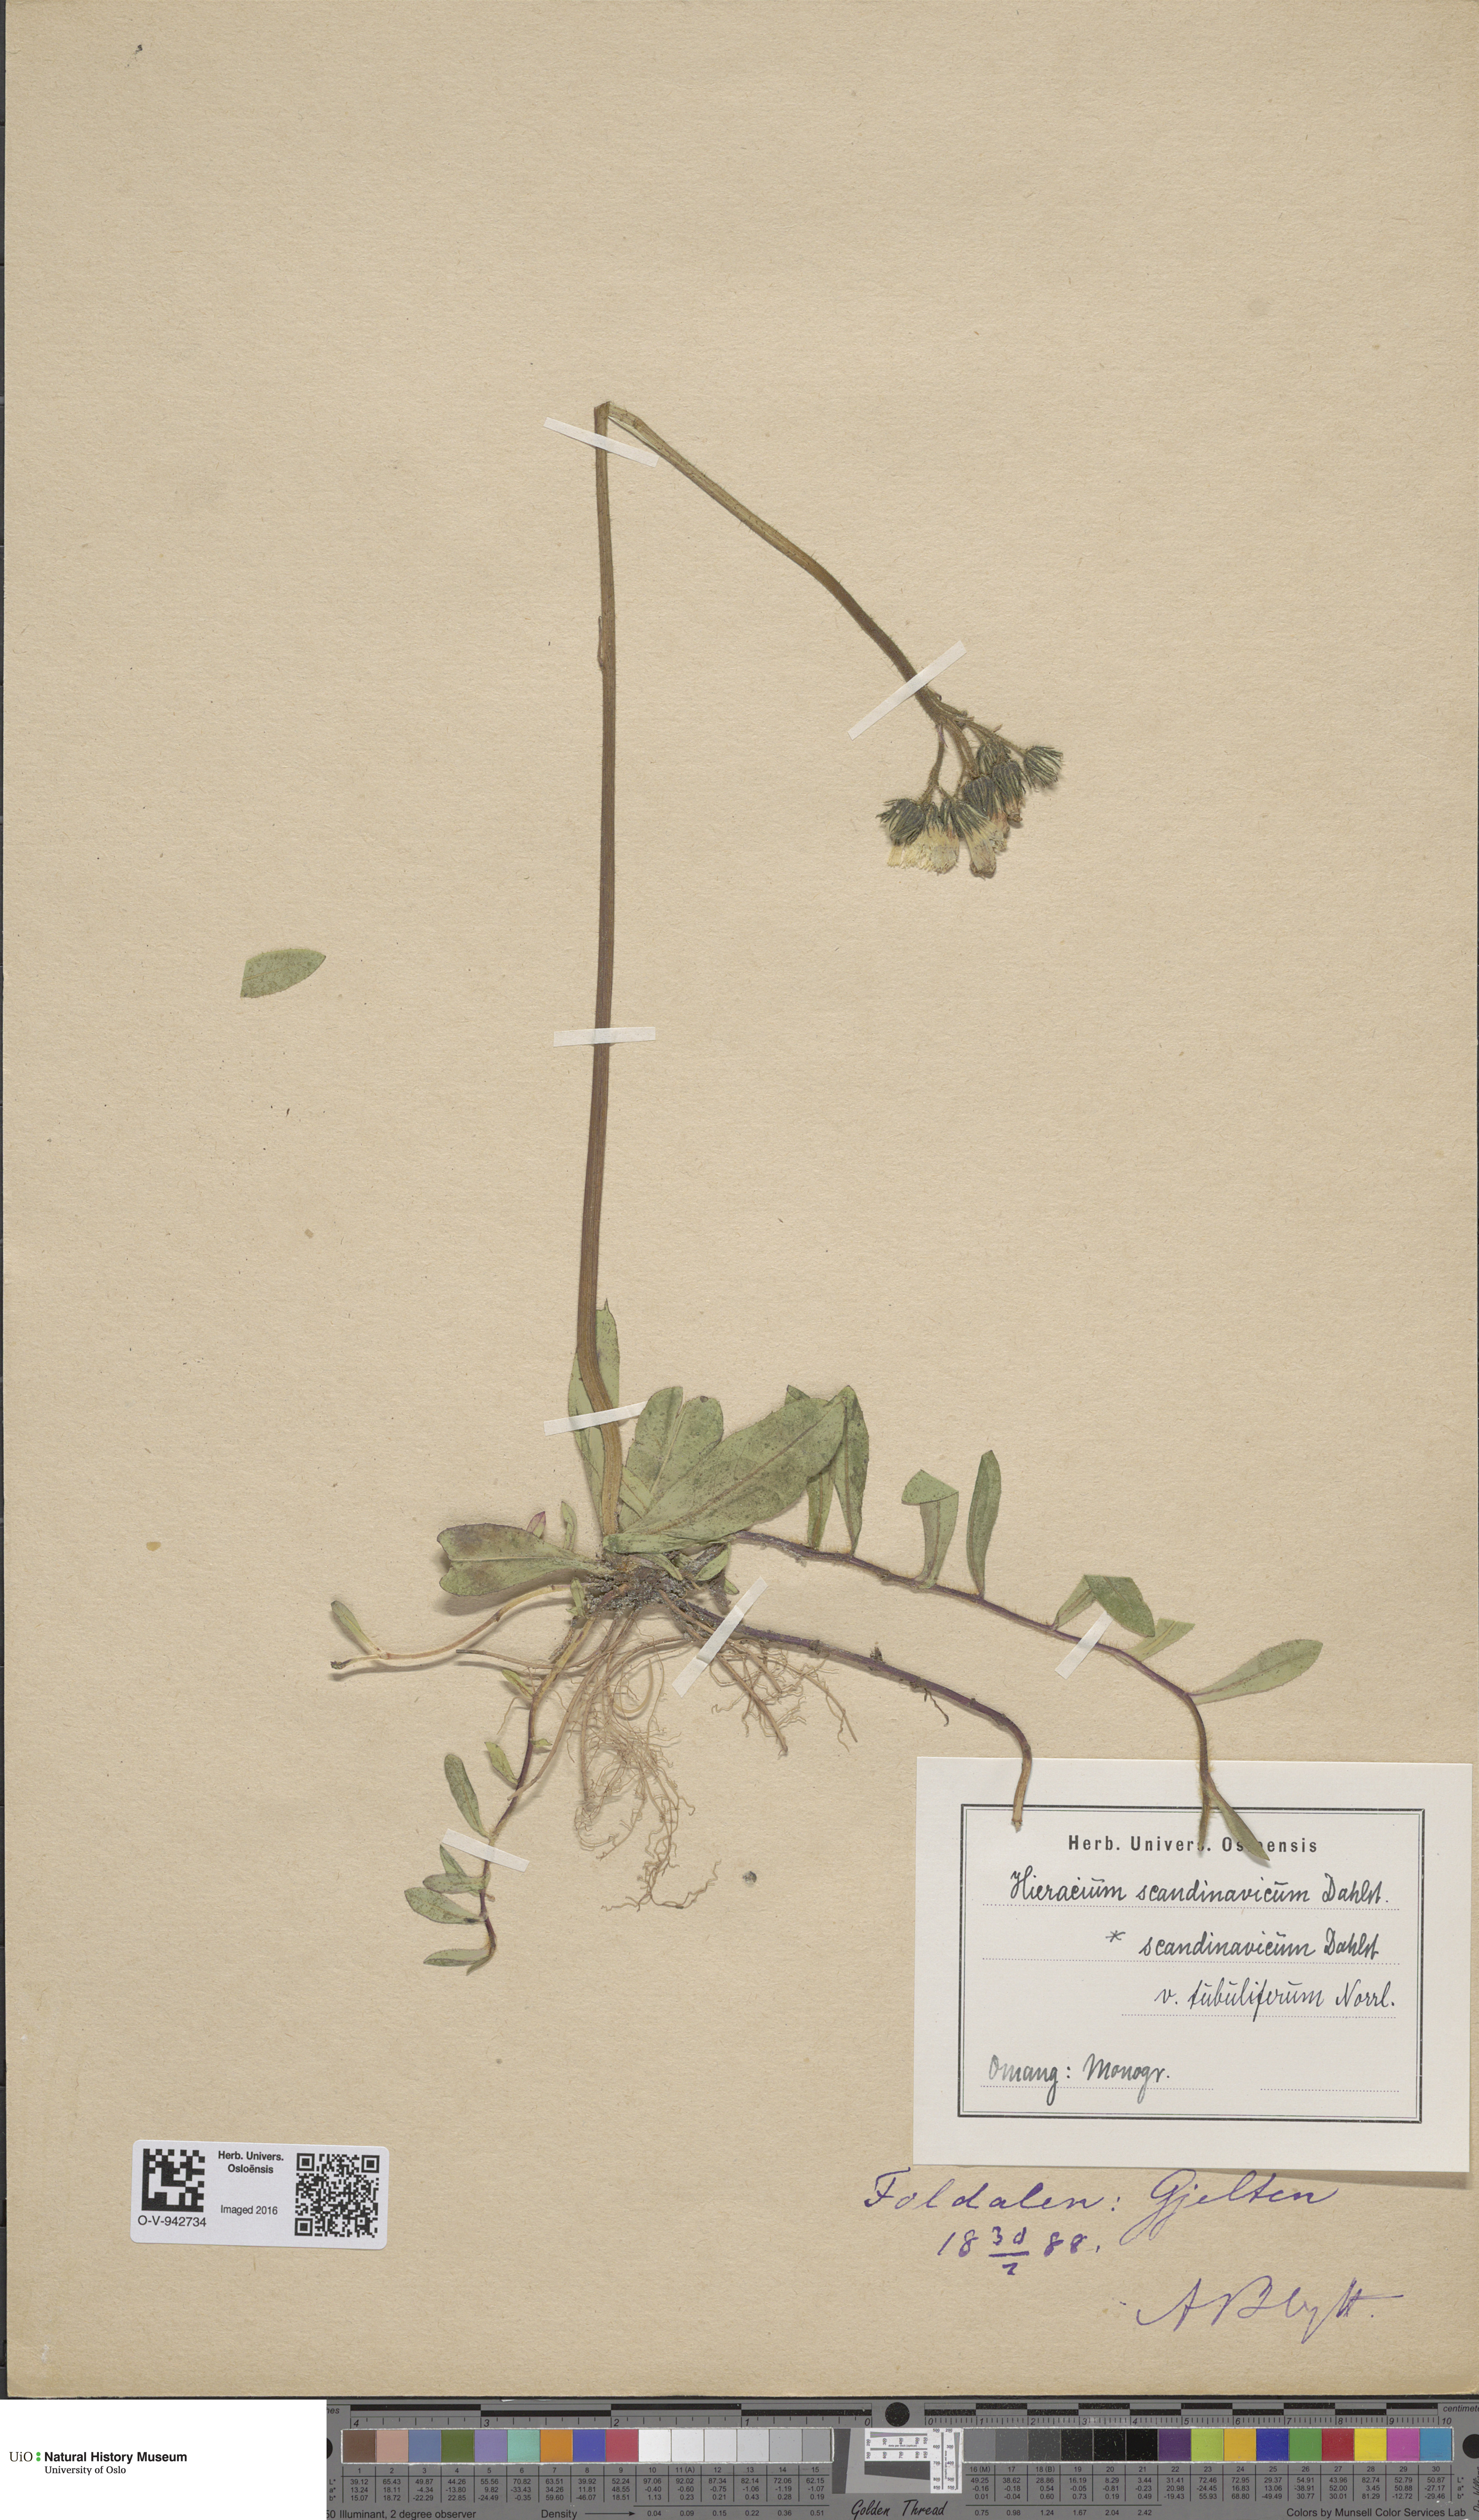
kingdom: Plantae
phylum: Tracheophyta
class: Magnoliopsida
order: Asterales
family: Asteraceae
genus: Pilosella
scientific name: Pilosella scandinavica
